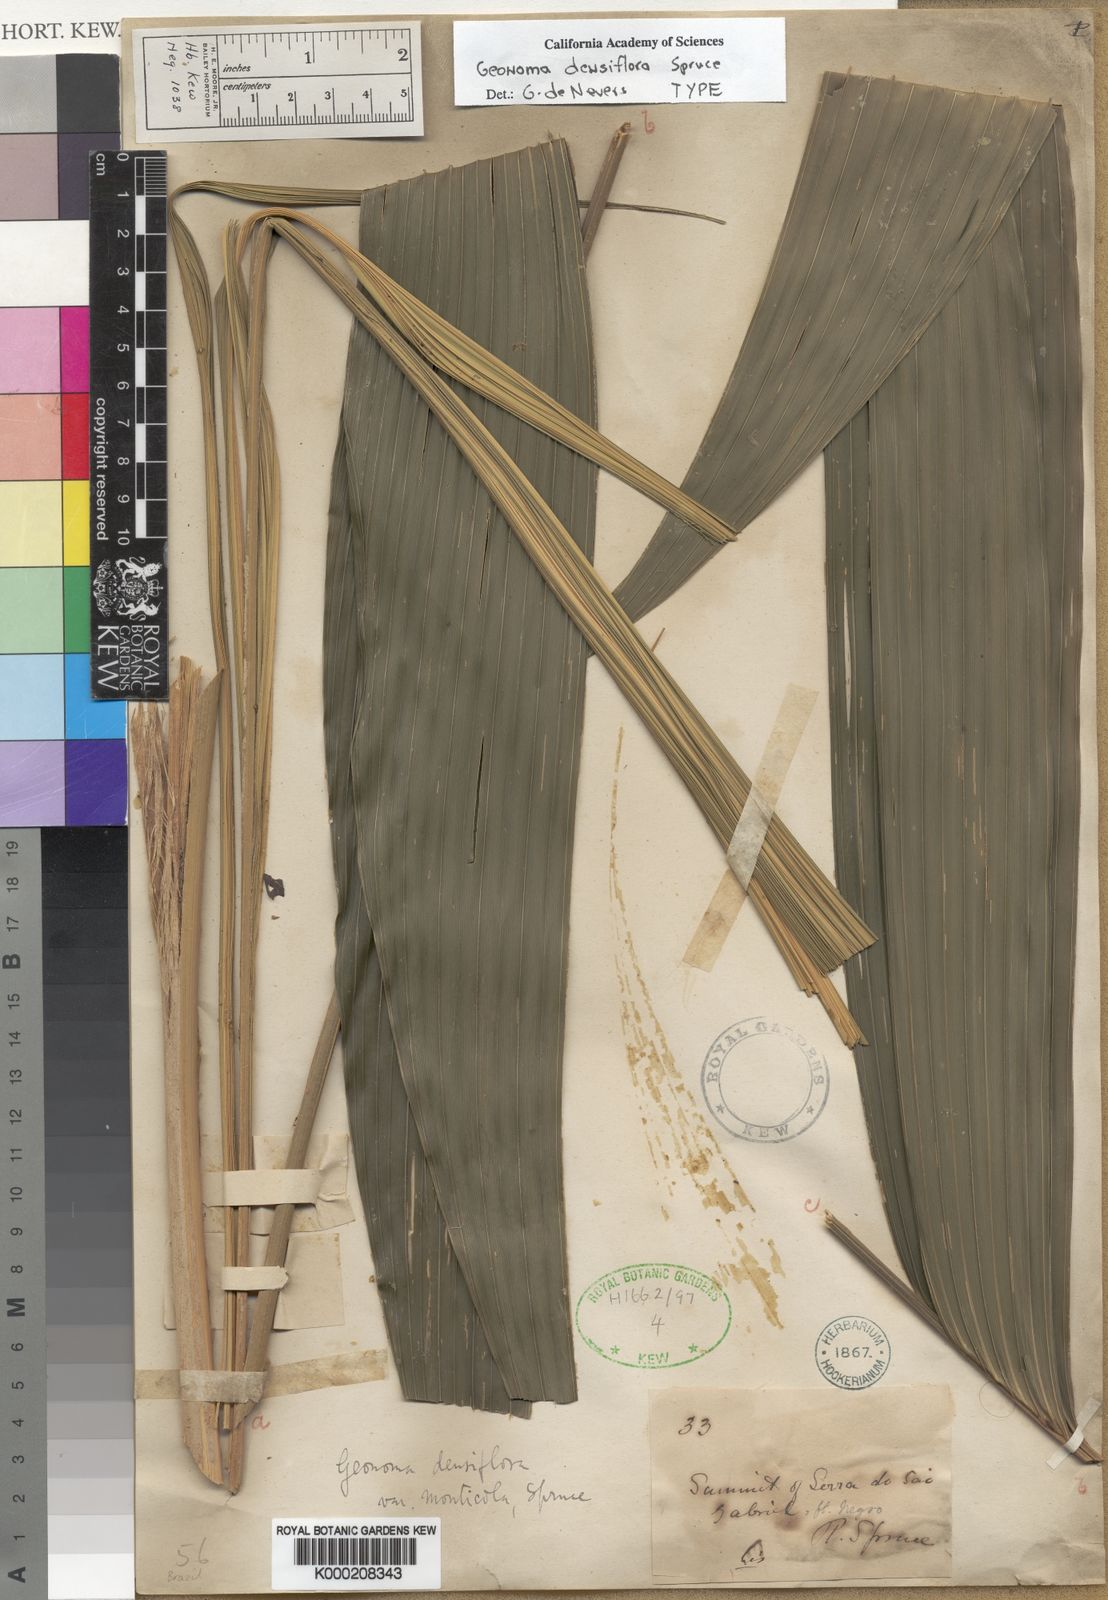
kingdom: Plantae
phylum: Tracheophyta
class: Liliopsida
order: Arecales
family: Arecaceae
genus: Geonoma
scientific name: Geonoma maxima
